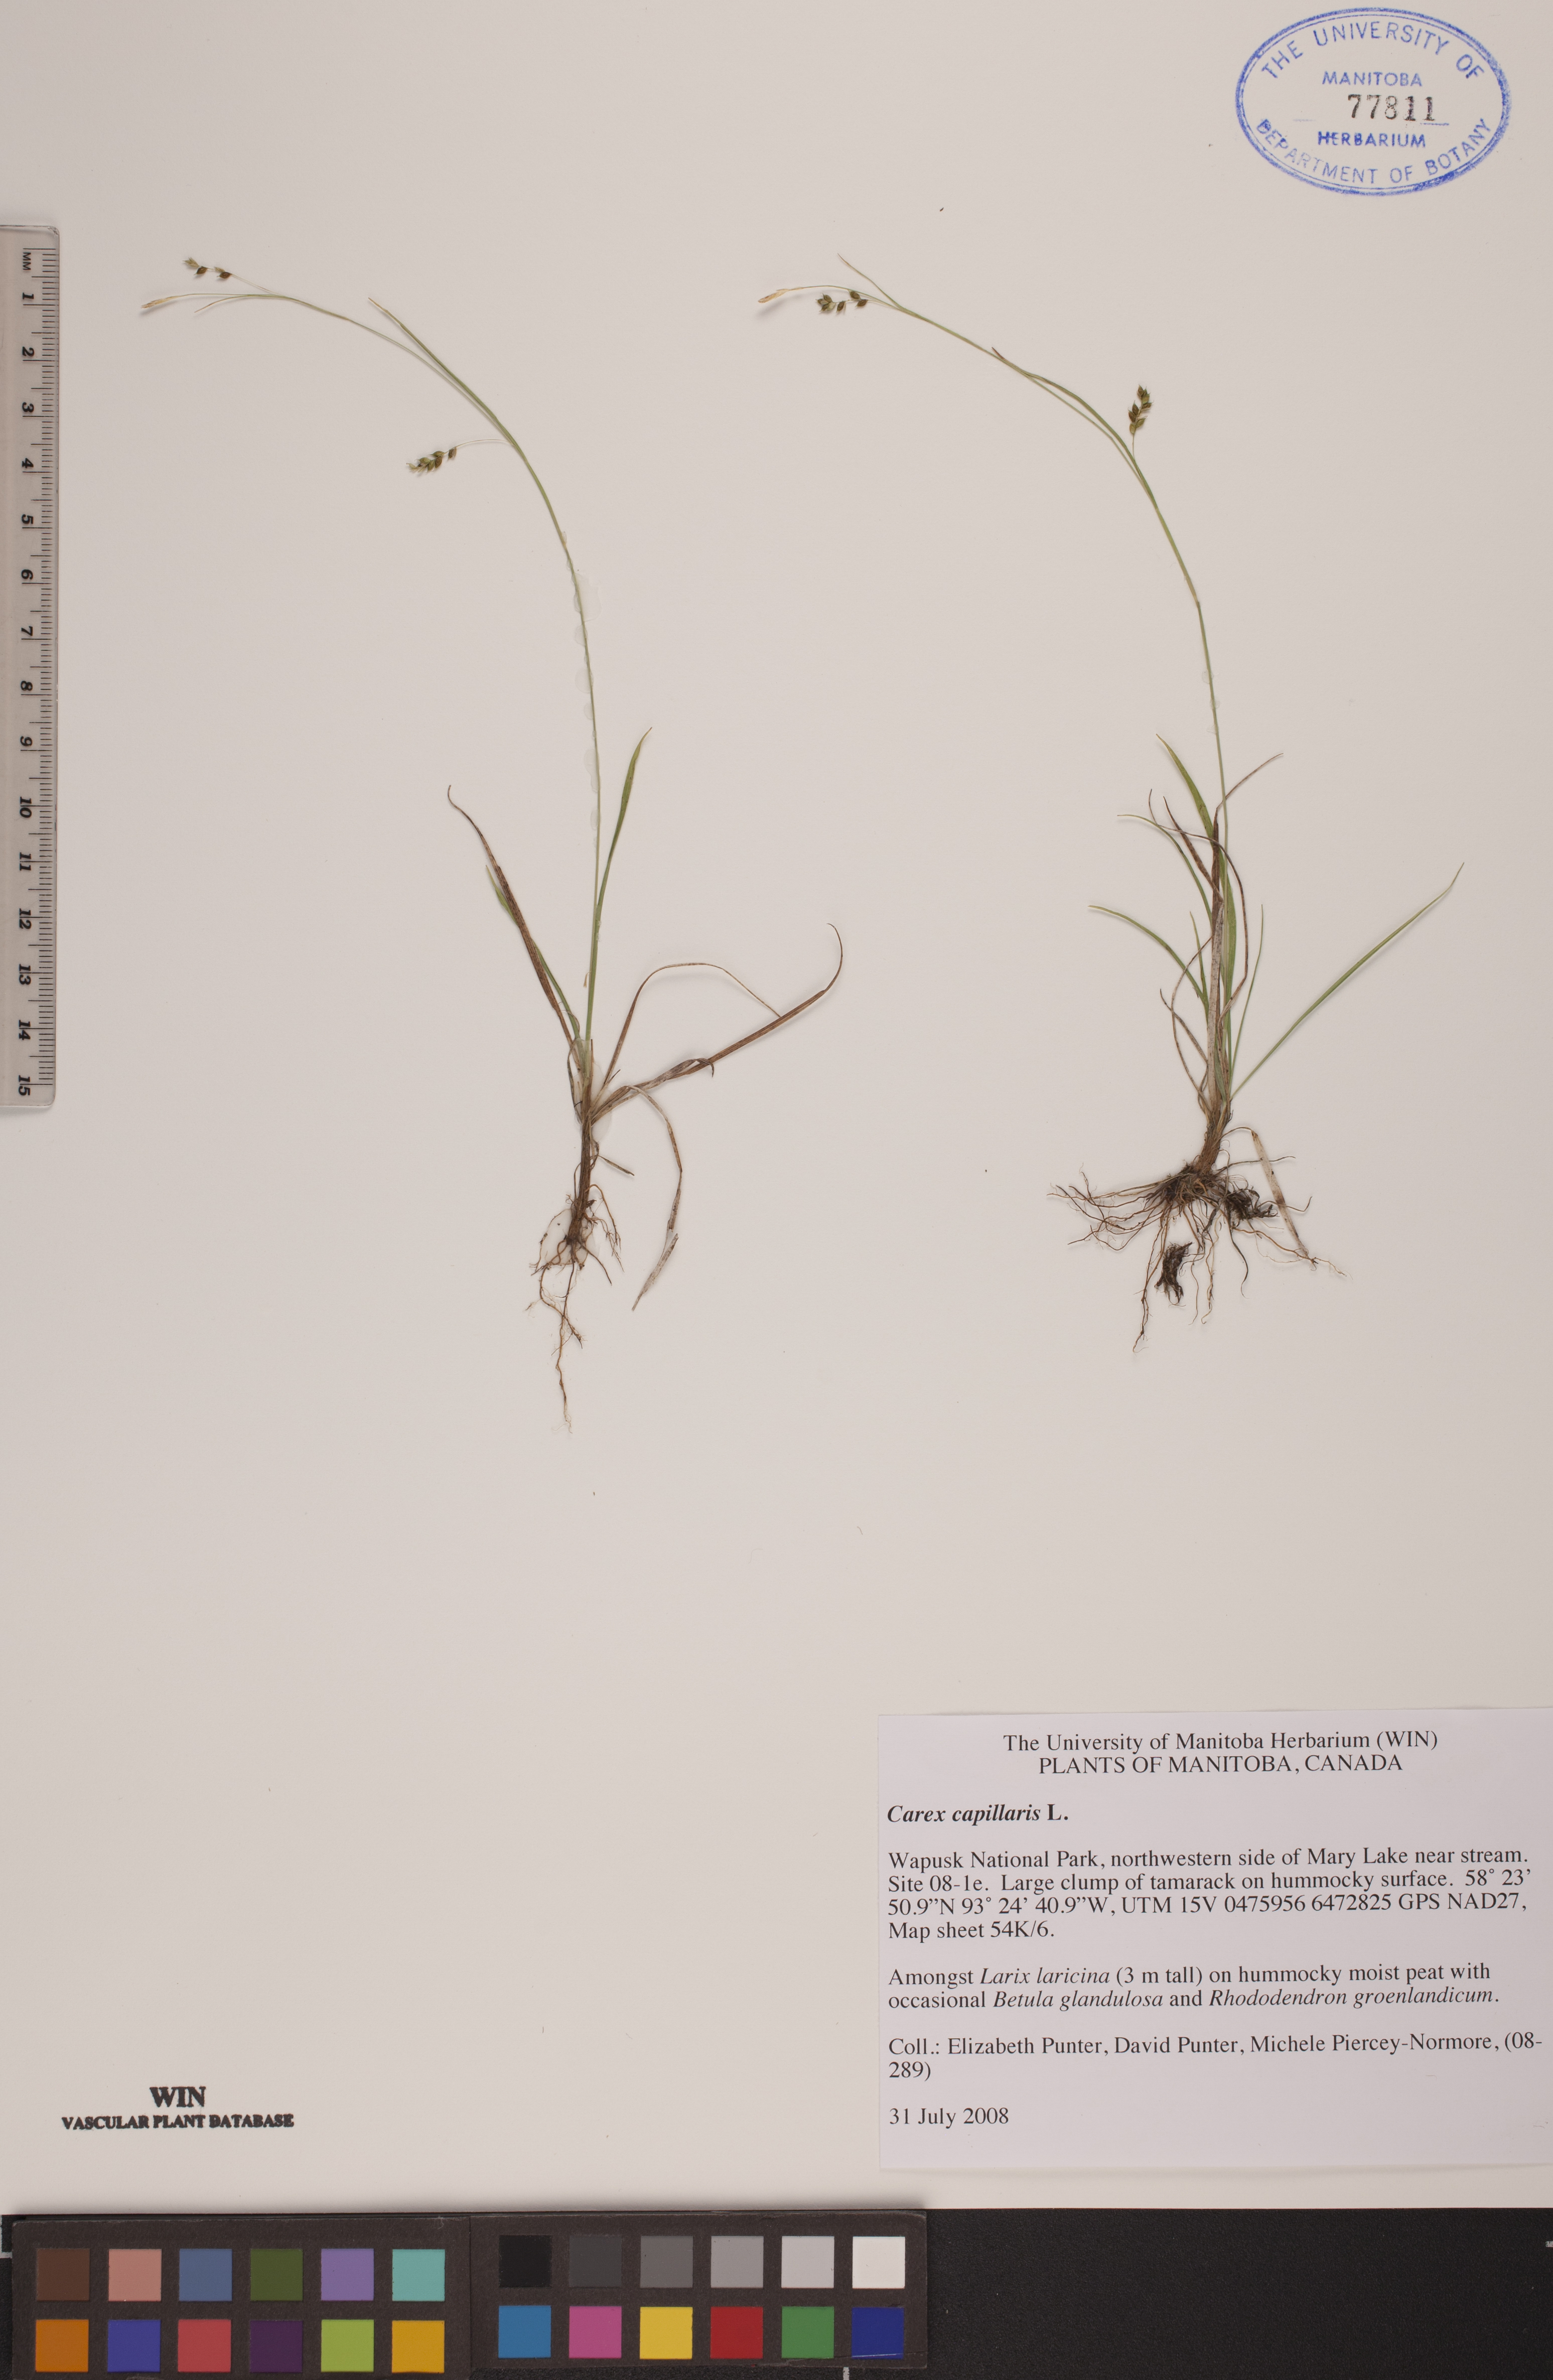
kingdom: Plantae
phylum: Tracheophyta
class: Liliopsida
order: Poales
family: Cyperaceae
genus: Carex
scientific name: Carex capillaris
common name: Hair sedge
